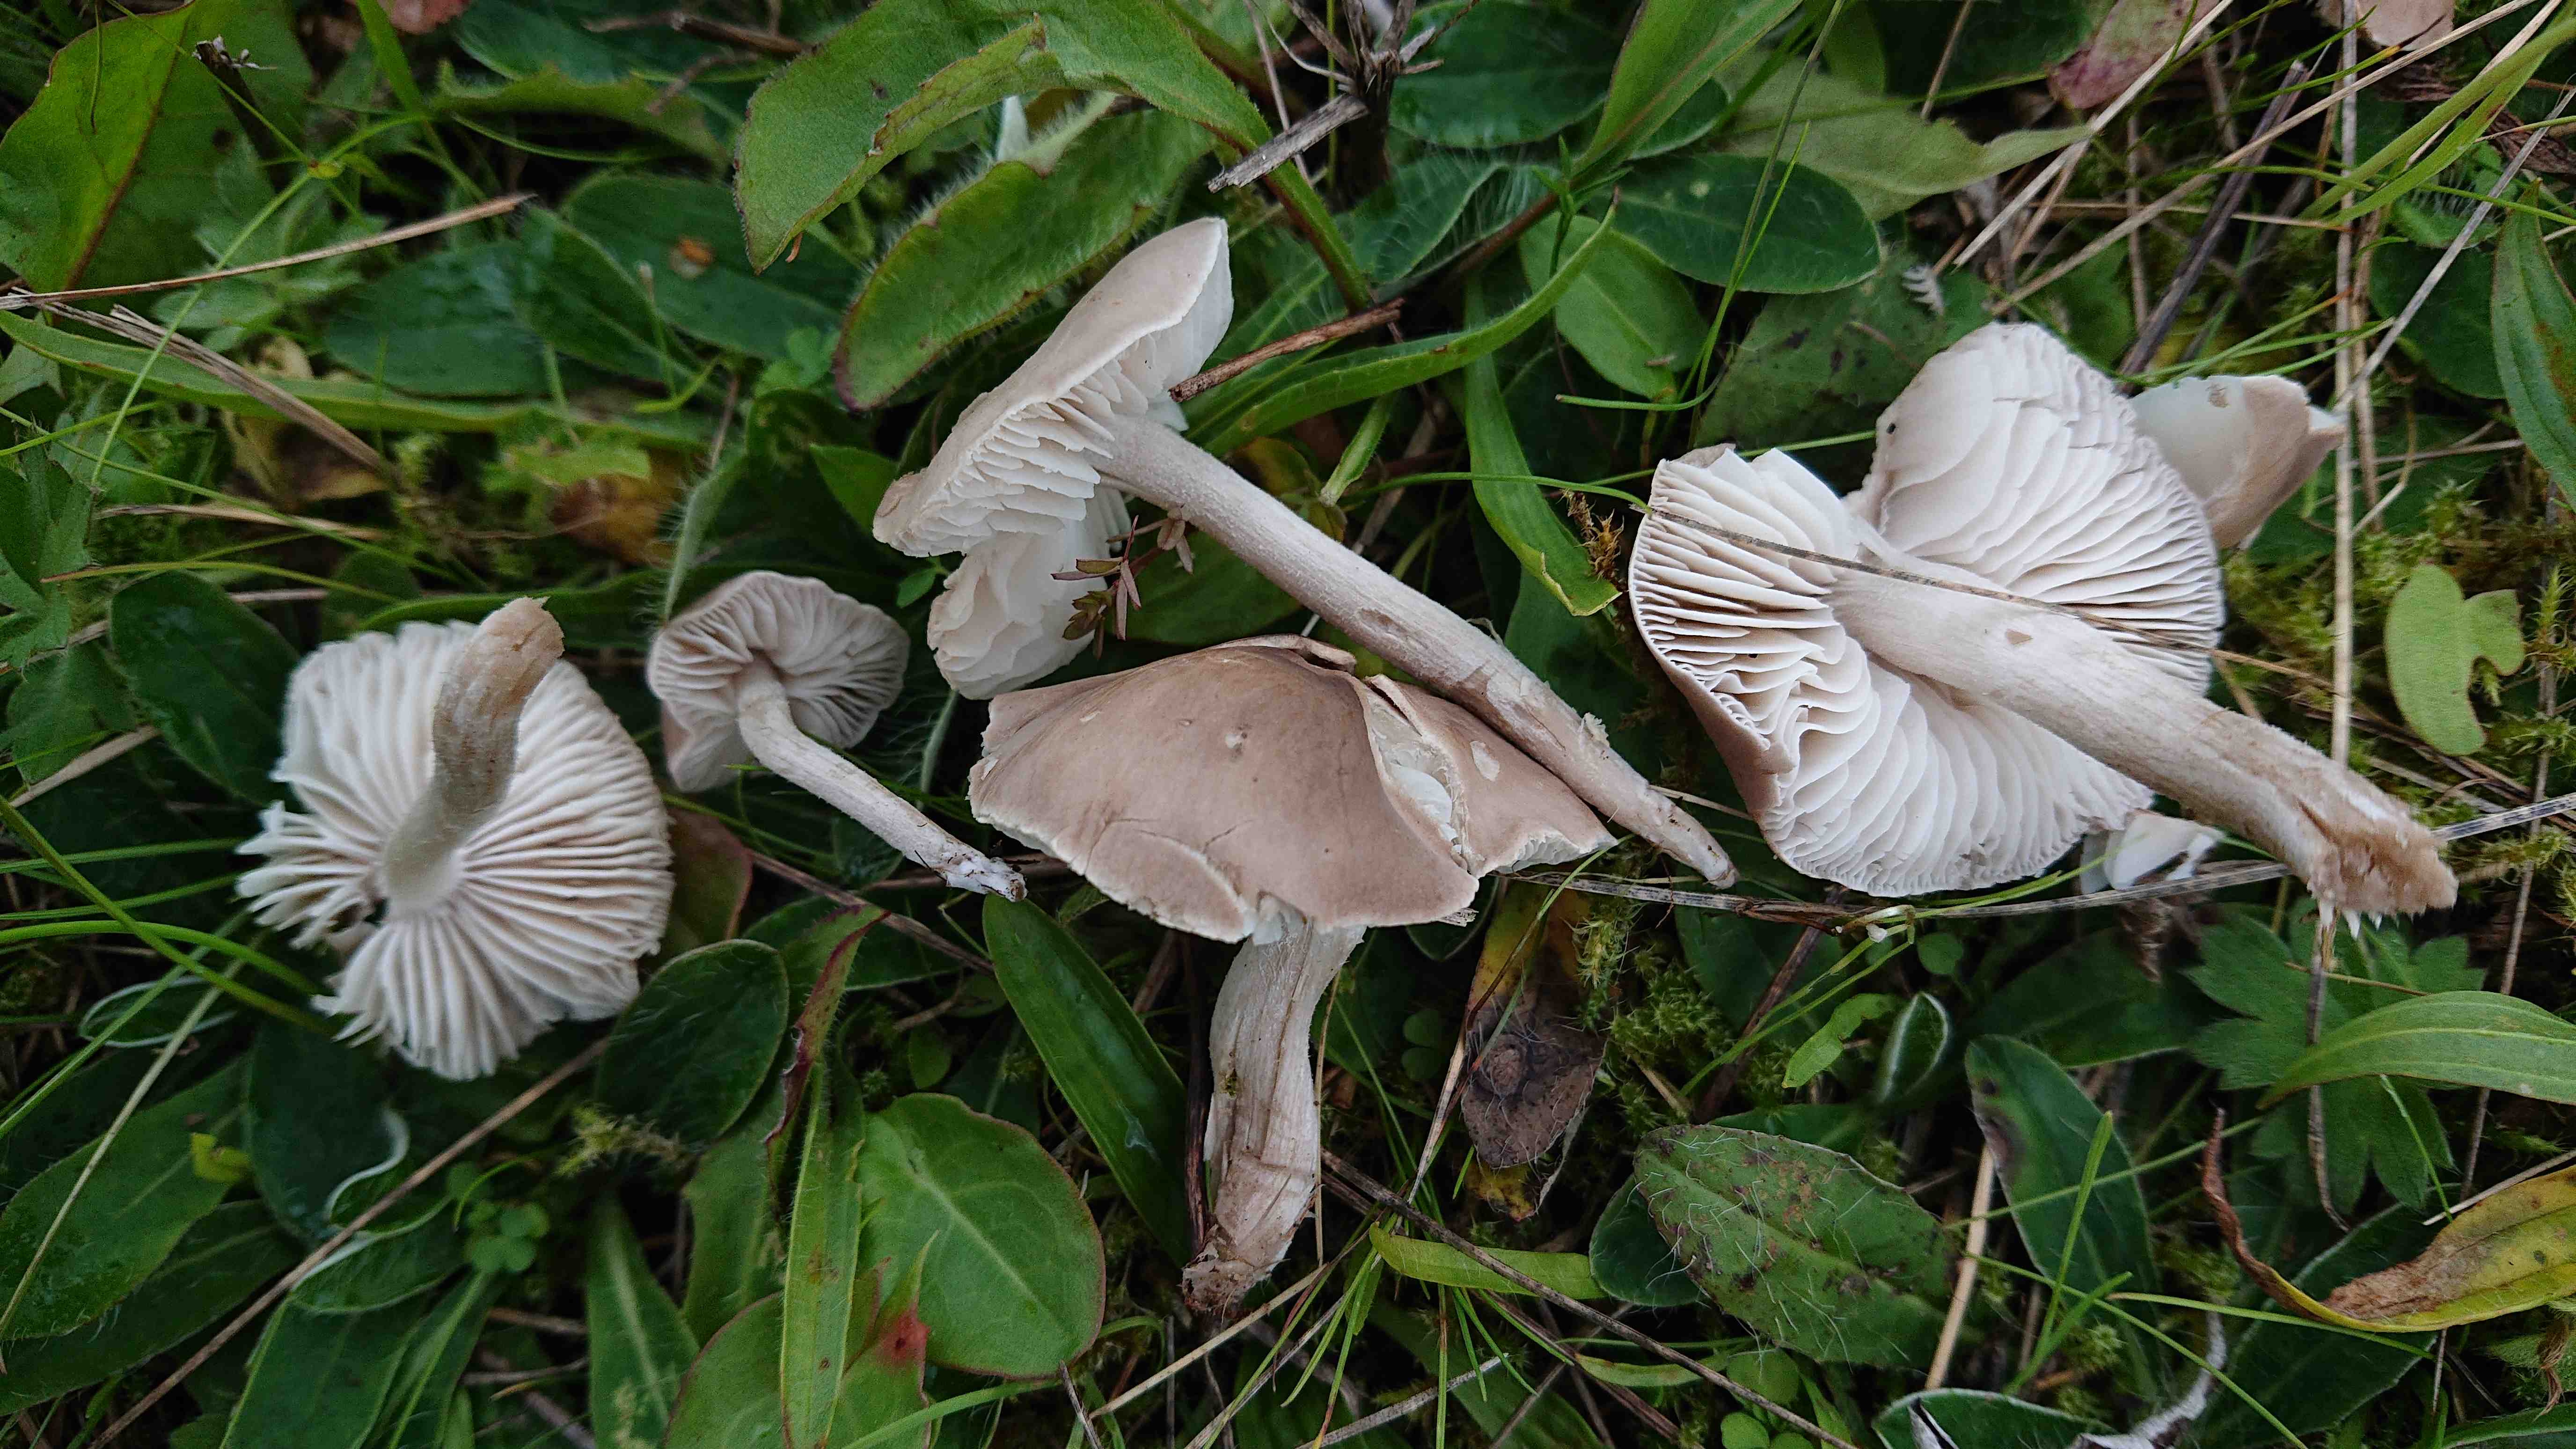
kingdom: Fungi
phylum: Basidiomycota
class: Agaricomycetes
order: Agaricales
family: Tricholomataceae
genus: Dermoloma
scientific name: Dermoloma cuneifolium
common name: eng-nonnehat
